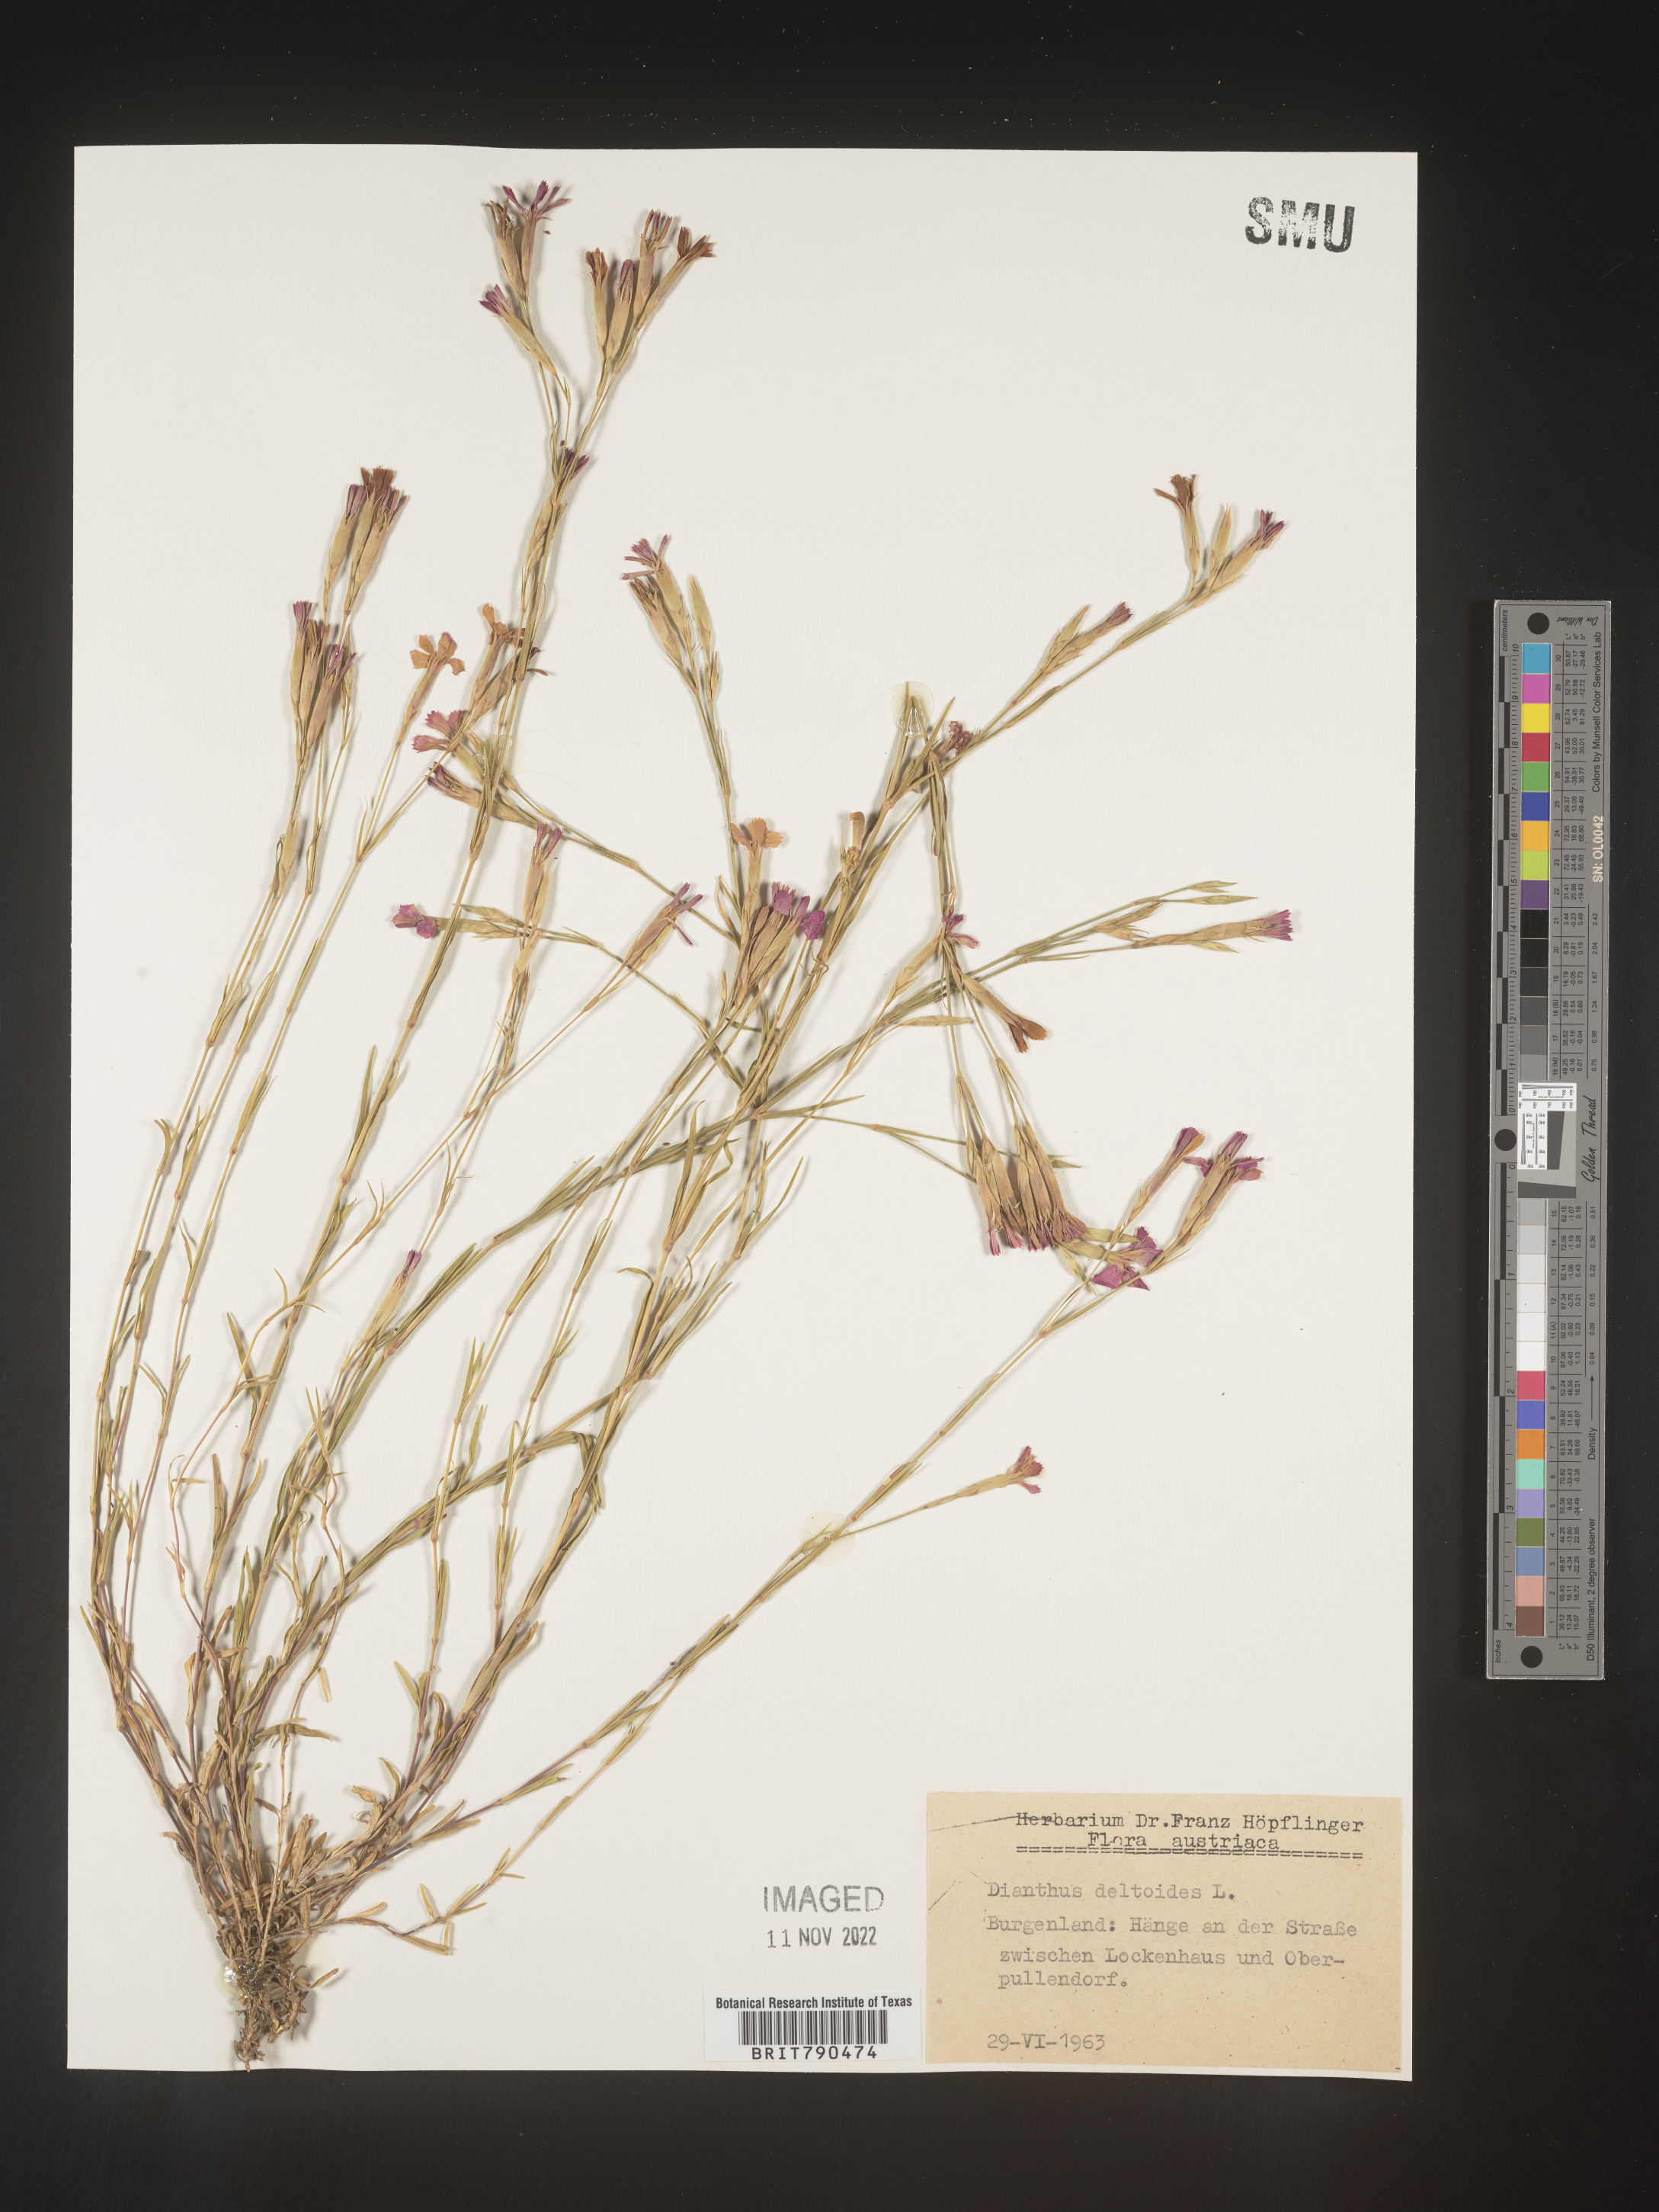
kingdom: Plantae
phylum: Tracheophyta
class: Magnoliopsida
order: Caryophyllales
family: Caryophyllaceae
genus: Dianthus
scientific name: Dianthus deltoides
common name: Maiden pink
